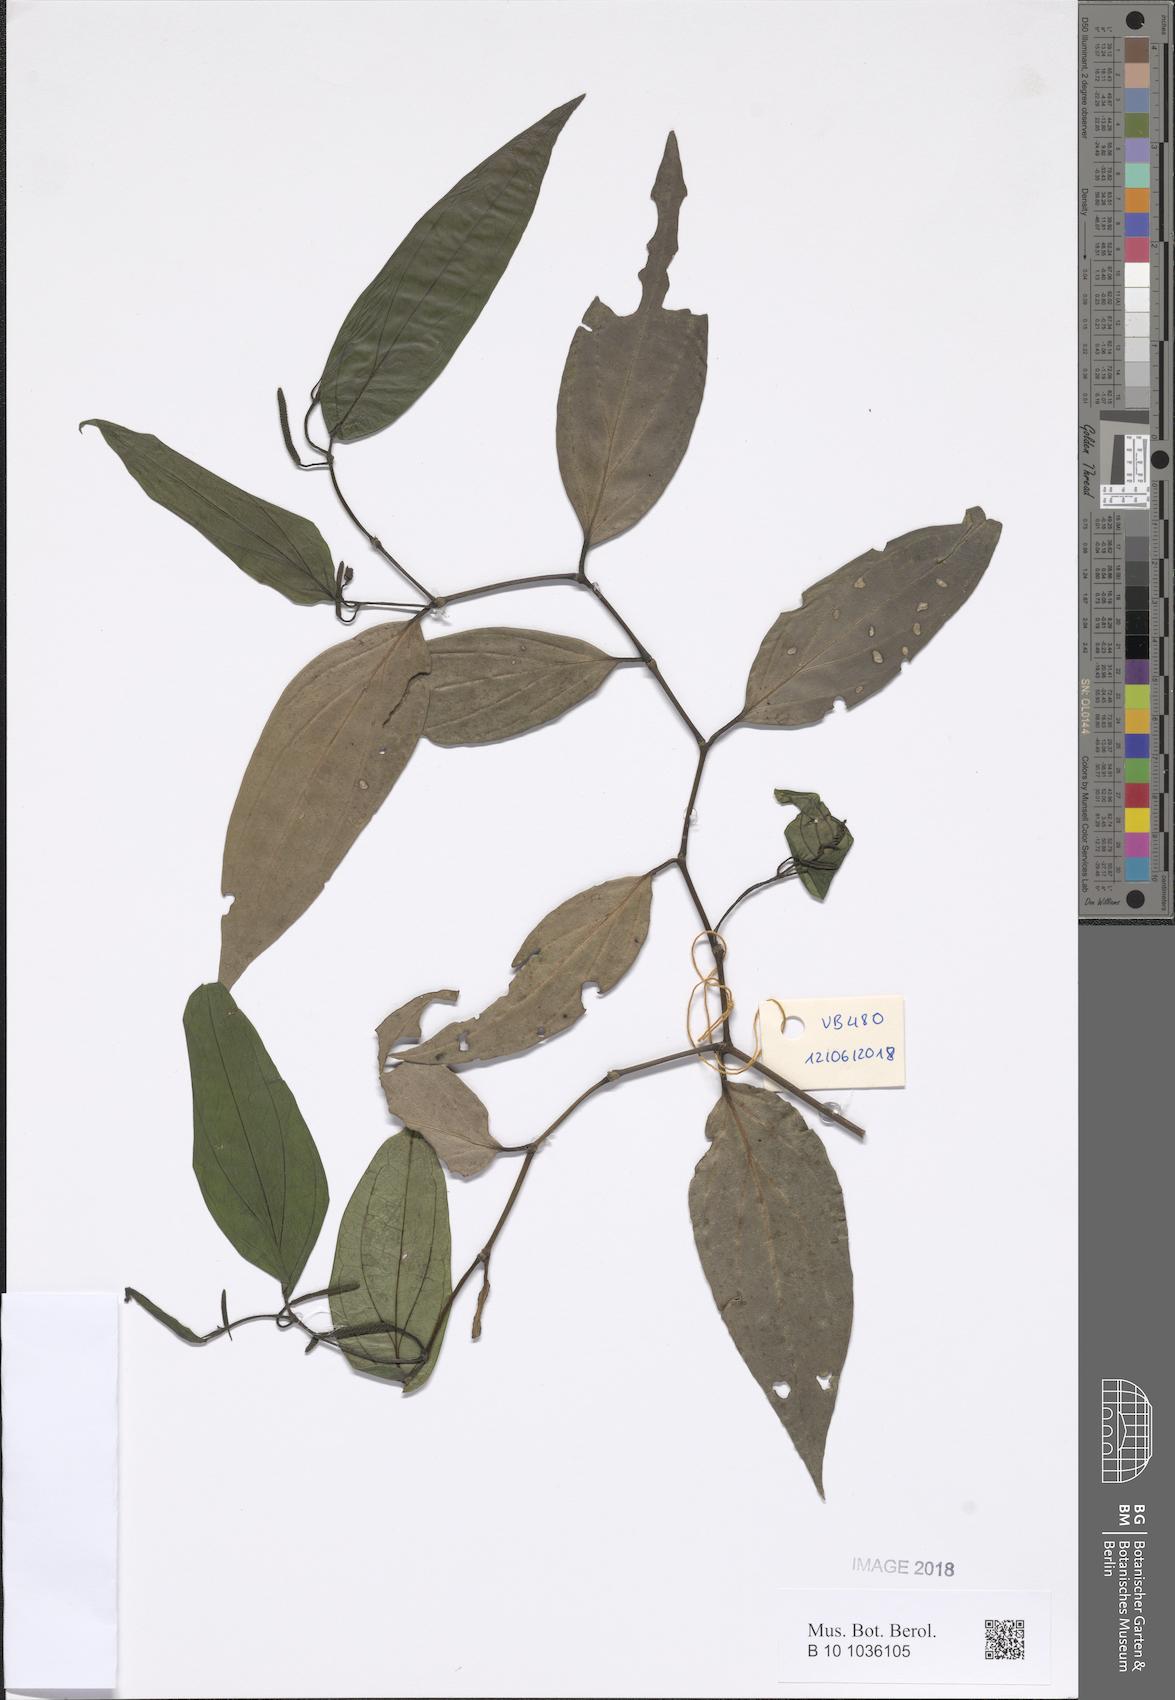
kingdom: Plantae
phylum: Tracheophyta
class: Magnoliopsida
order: Piperales
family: Piperaceae
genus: Piper
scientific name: Piper
